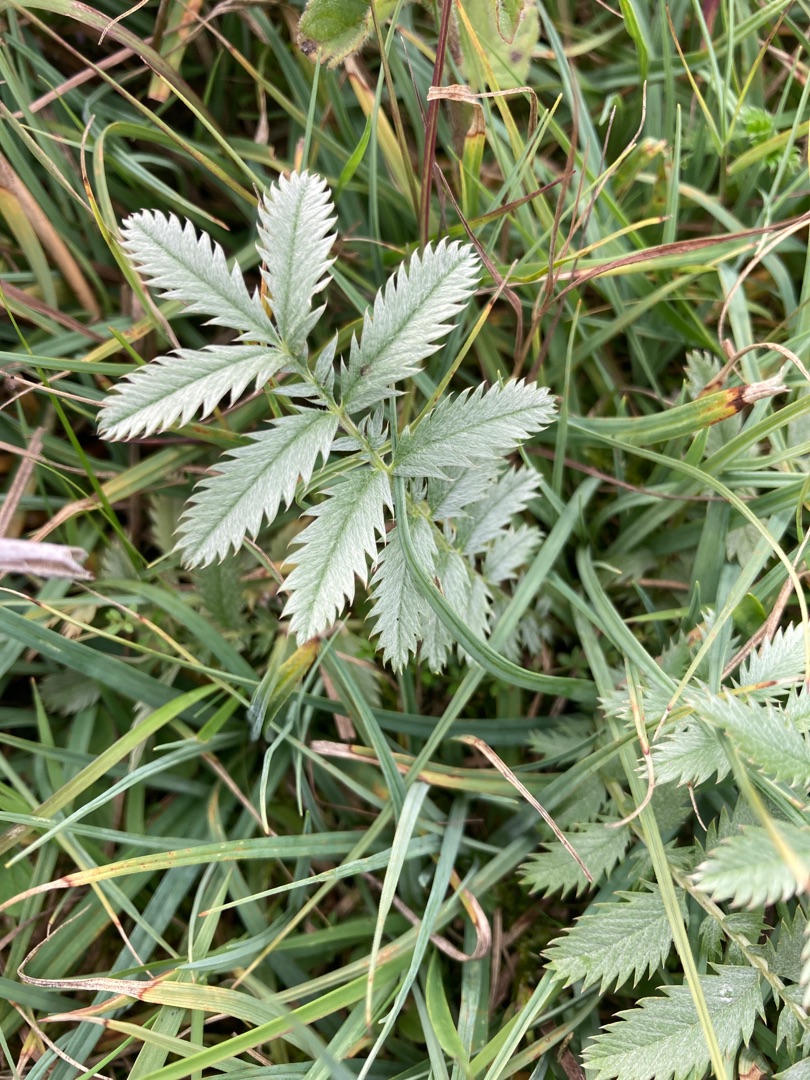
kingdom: Plantae
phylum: Tracheophyta
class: Magnoliopsida
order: Rosales
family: Rosaceae
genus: Argentina
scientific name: Argentina anserina
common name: Gåsepotentil
